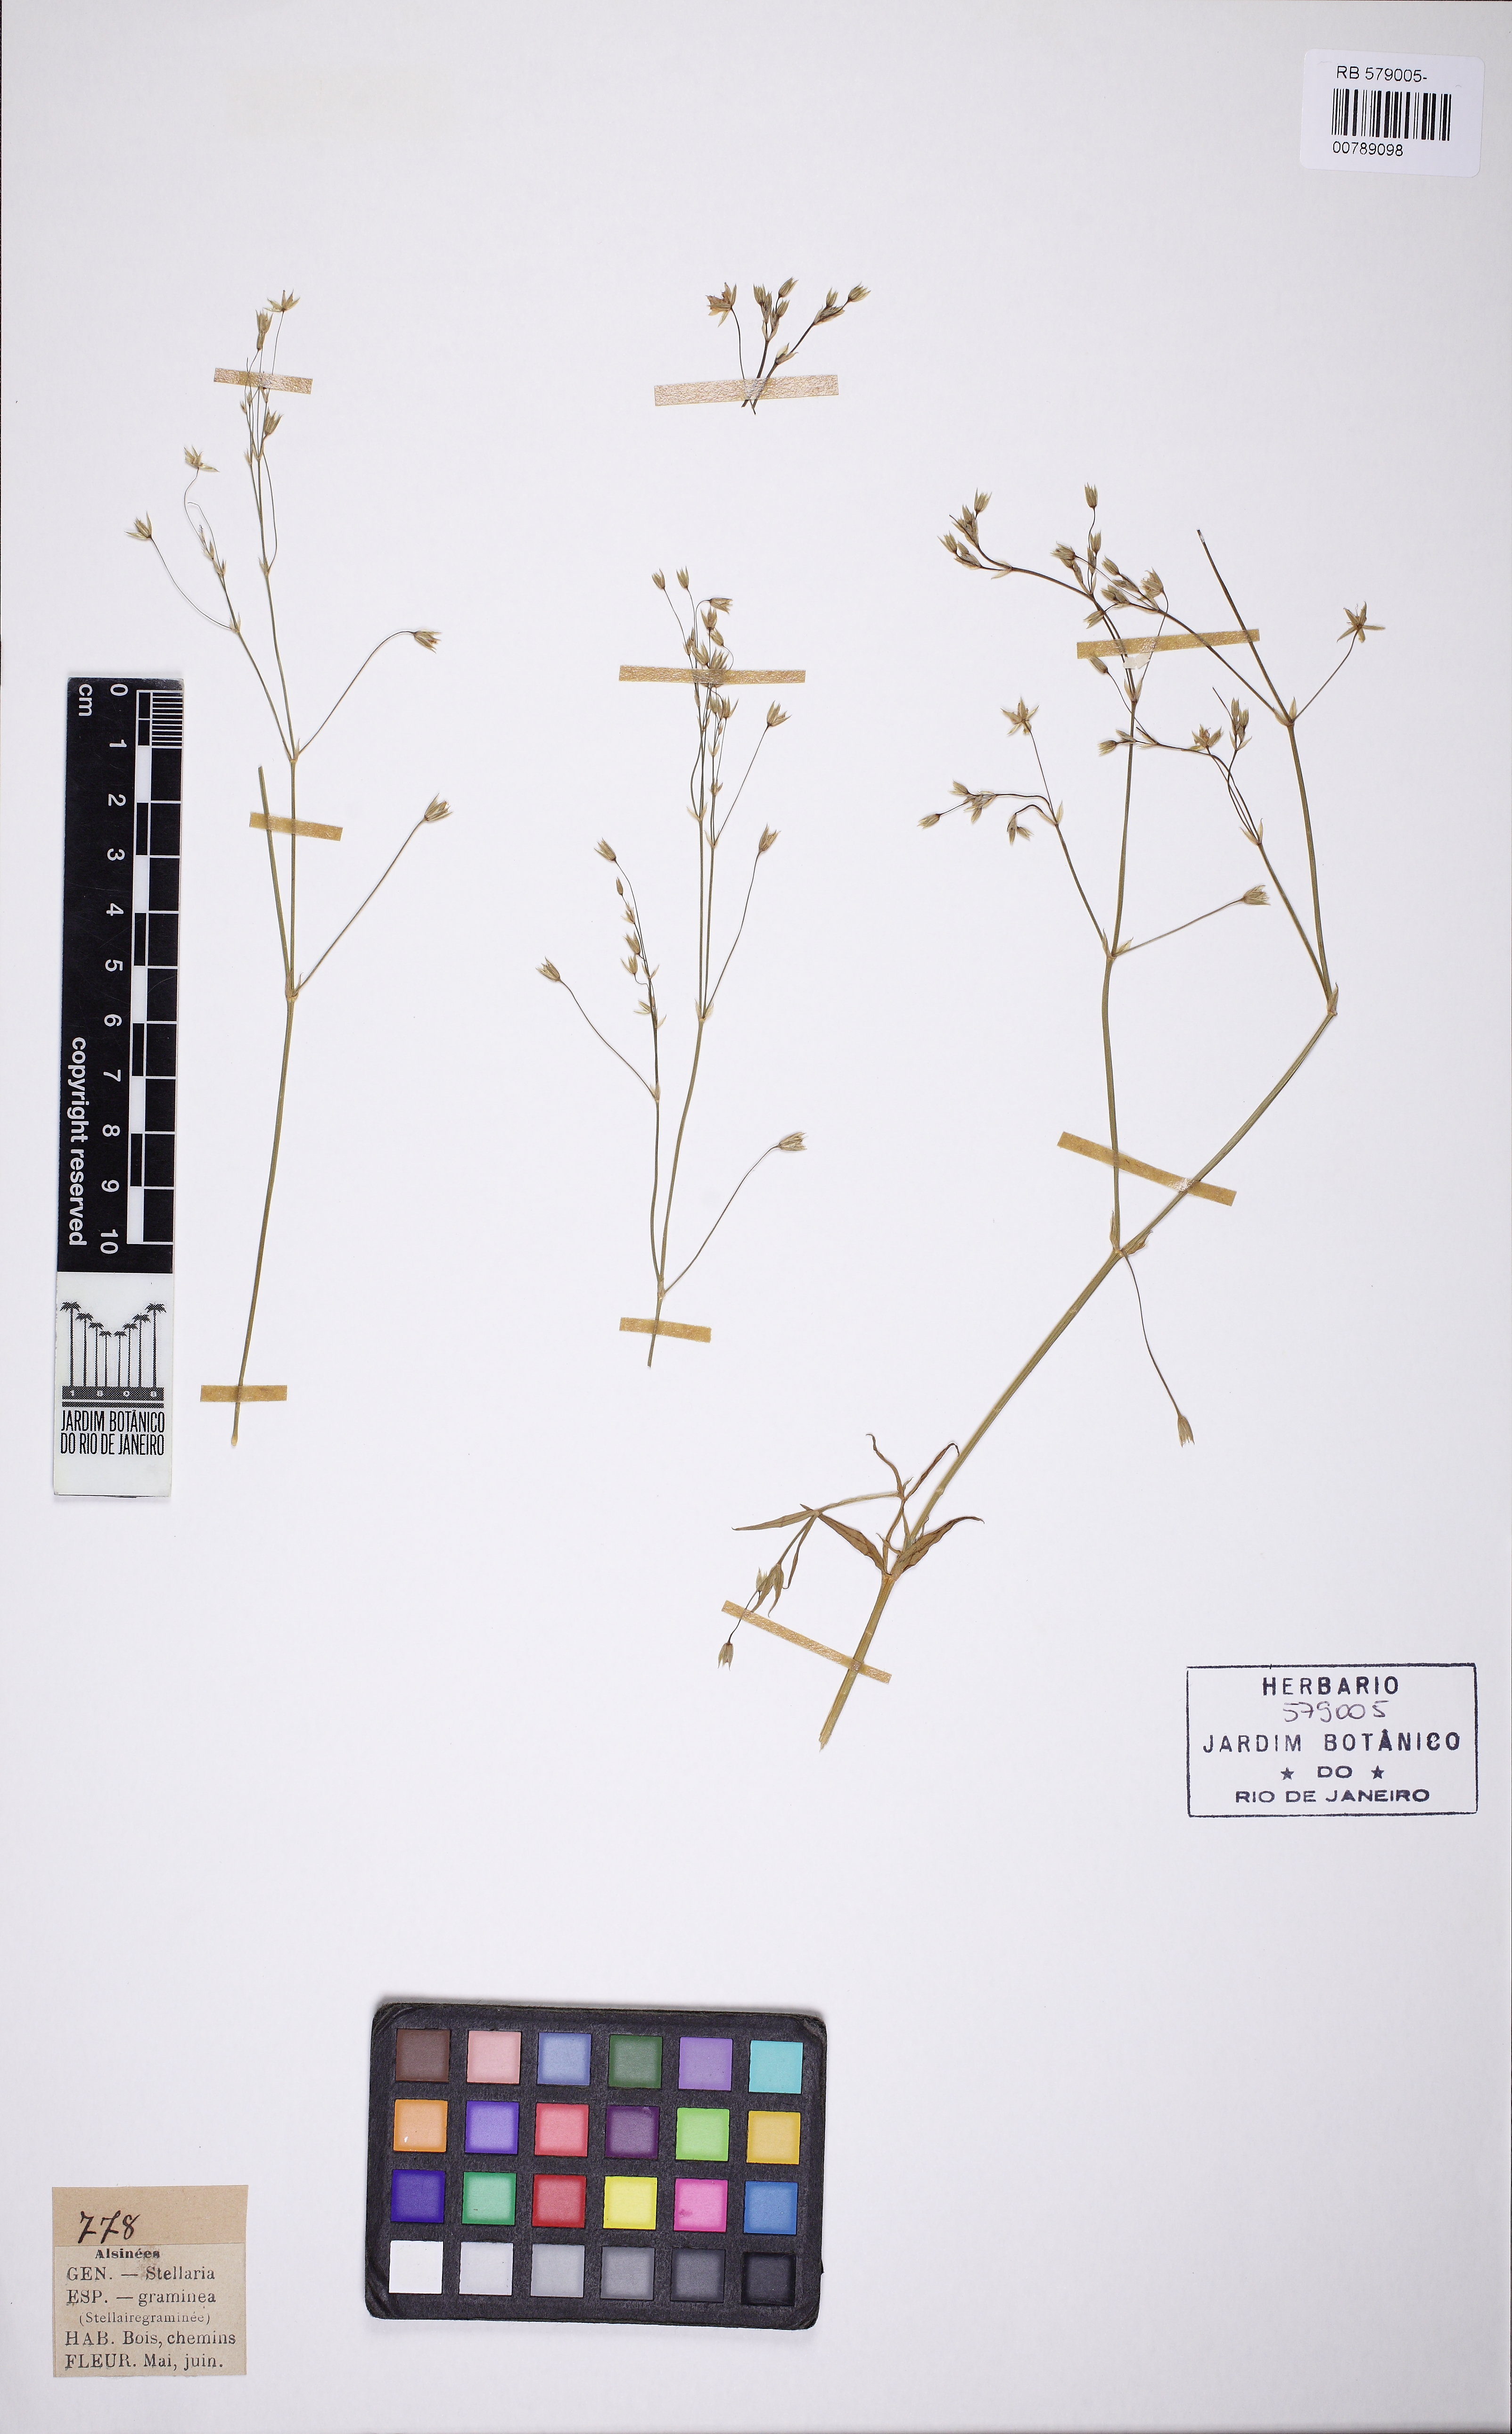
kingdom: Plantae
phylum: Tracheophyta
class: Magnoliopsida
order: Caryophyllales
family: Caryophyllaceae
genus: Stellaria
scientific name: Stellaria graminea
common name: Grass-like starwort
